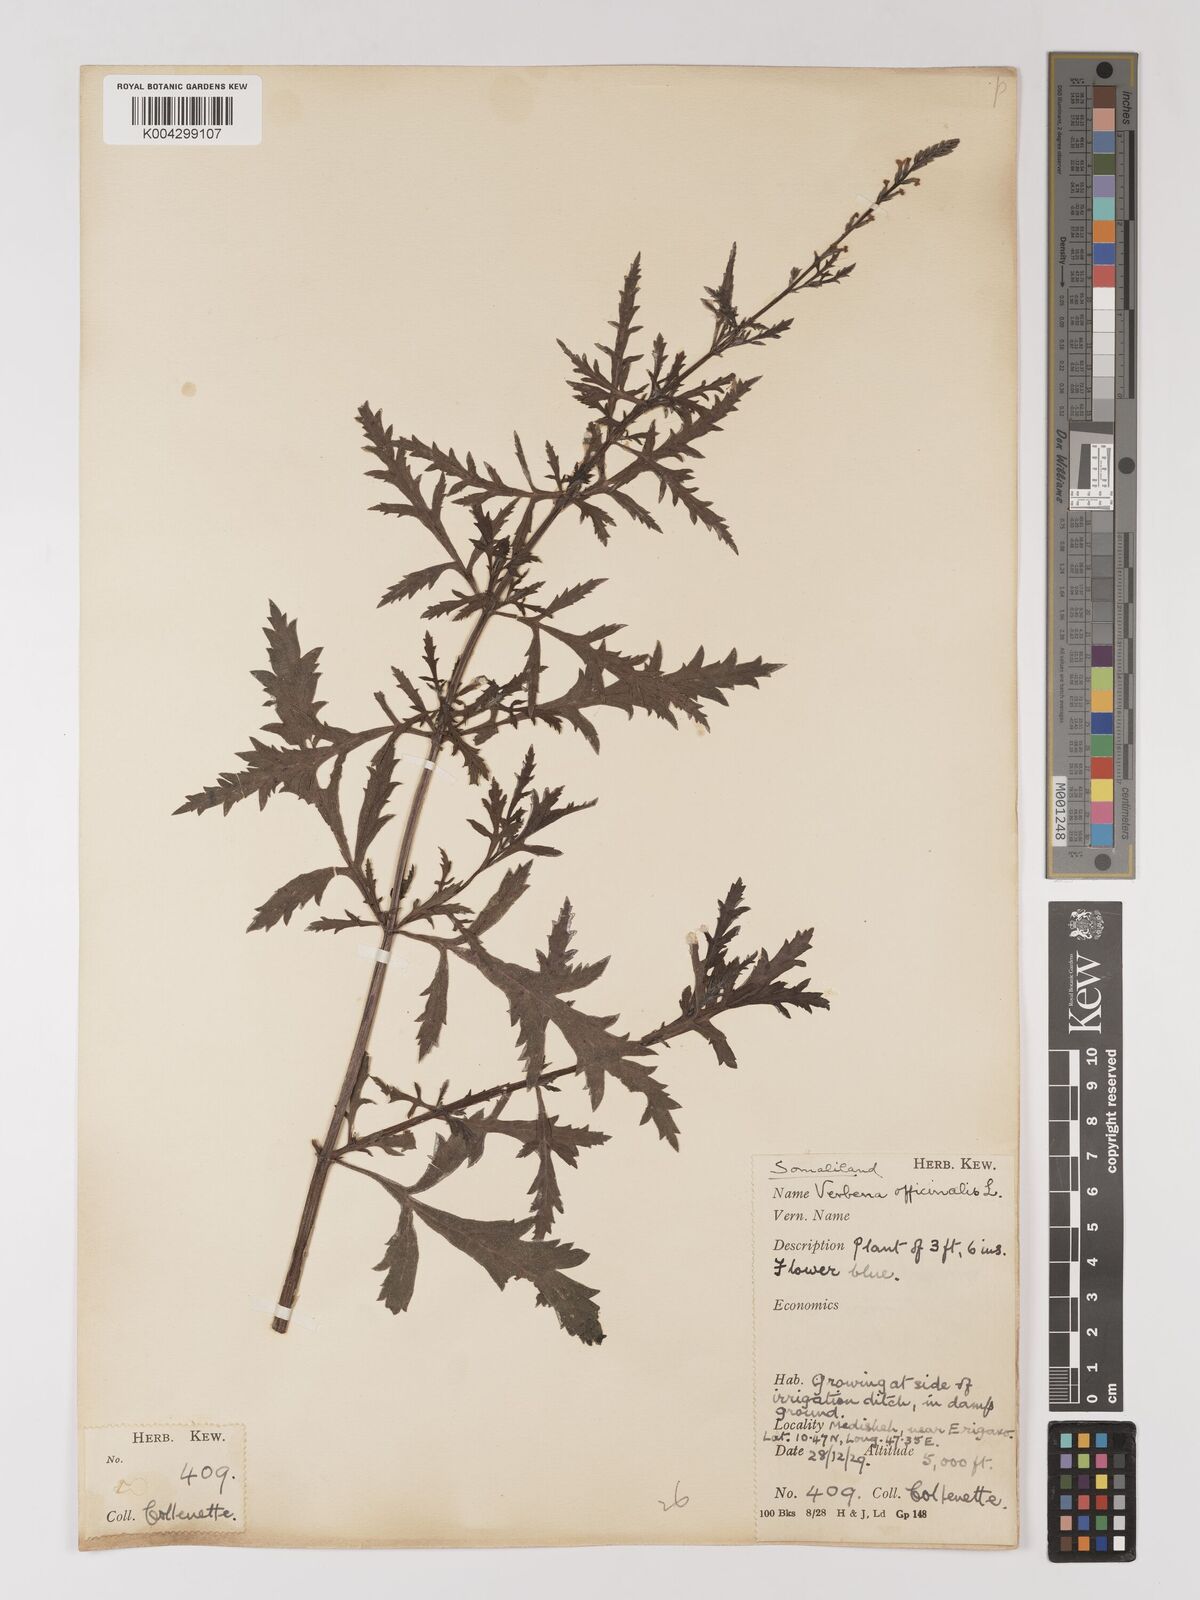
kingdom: Plantae
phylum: Tracheophyta
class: Magnoliopsida
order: Lamiales
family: Verbenaceae
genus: Verbena
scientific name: Verbena officinalis
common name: Vervain
